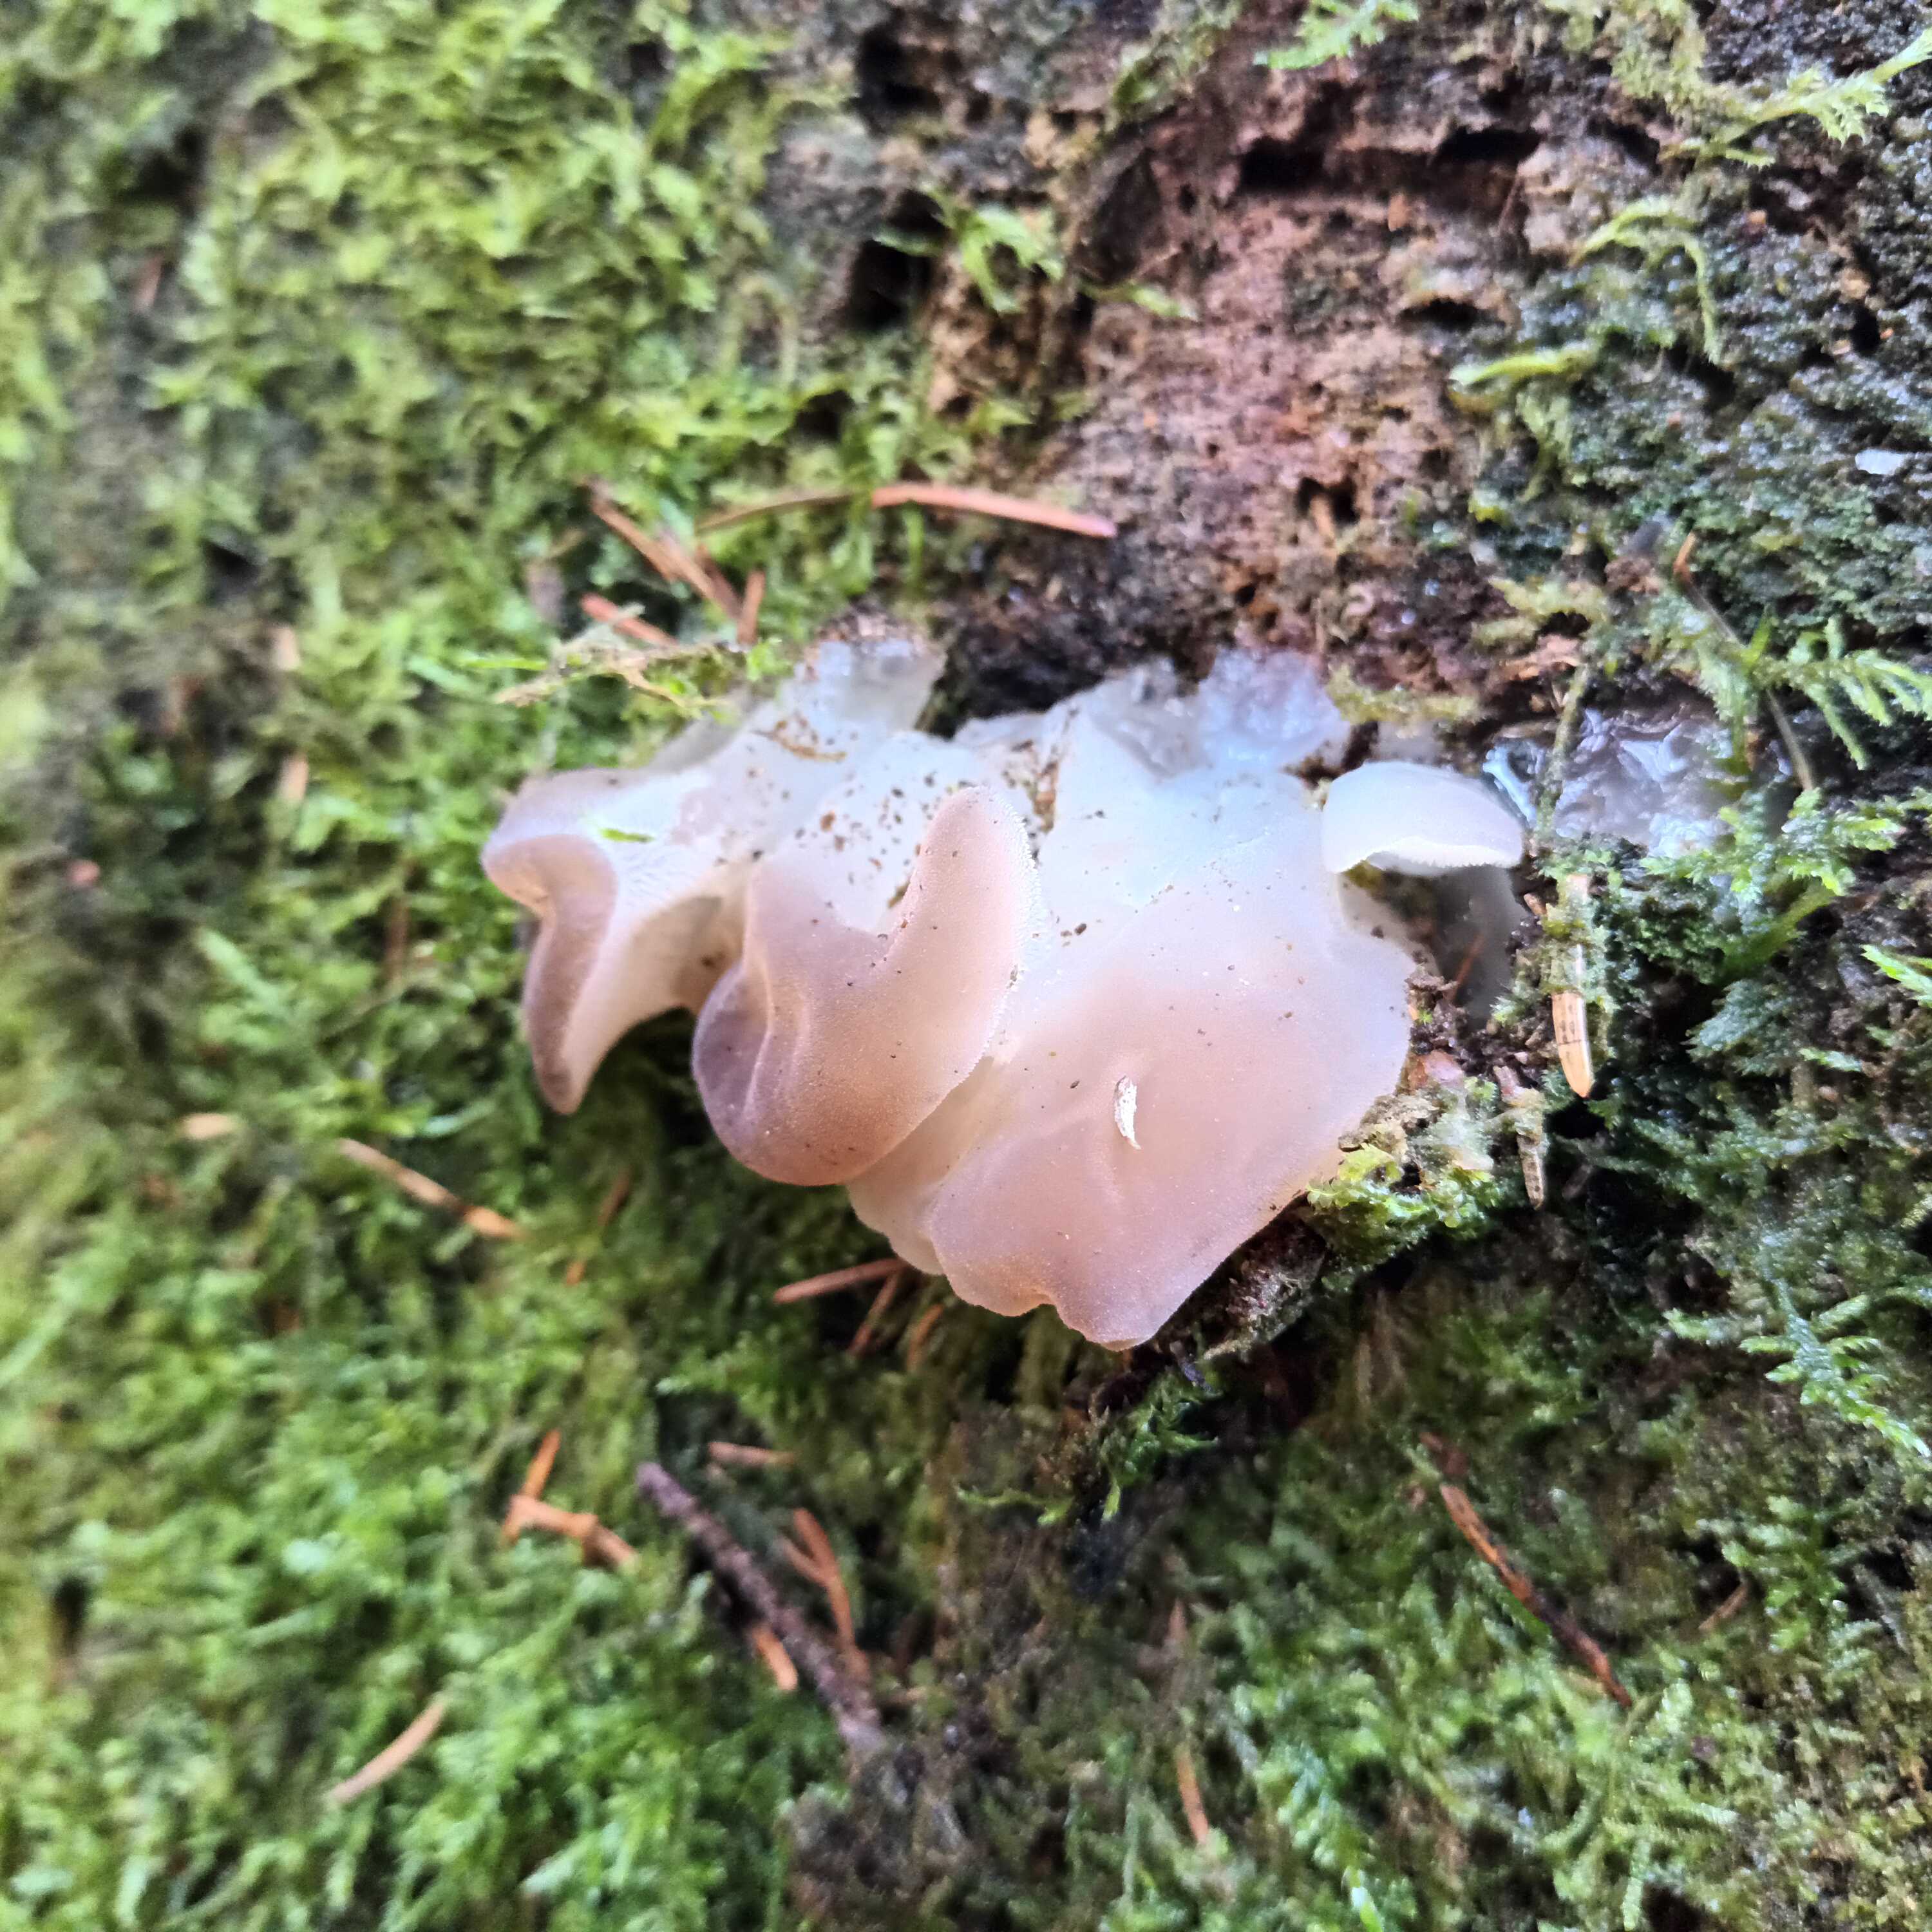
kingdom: Fungi
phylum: Basidiomycota
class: Agaricomycetes
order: Auriculariales
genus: Pseudohydnum
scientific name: Pseudohydnum gelatinosum
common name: bævretand
